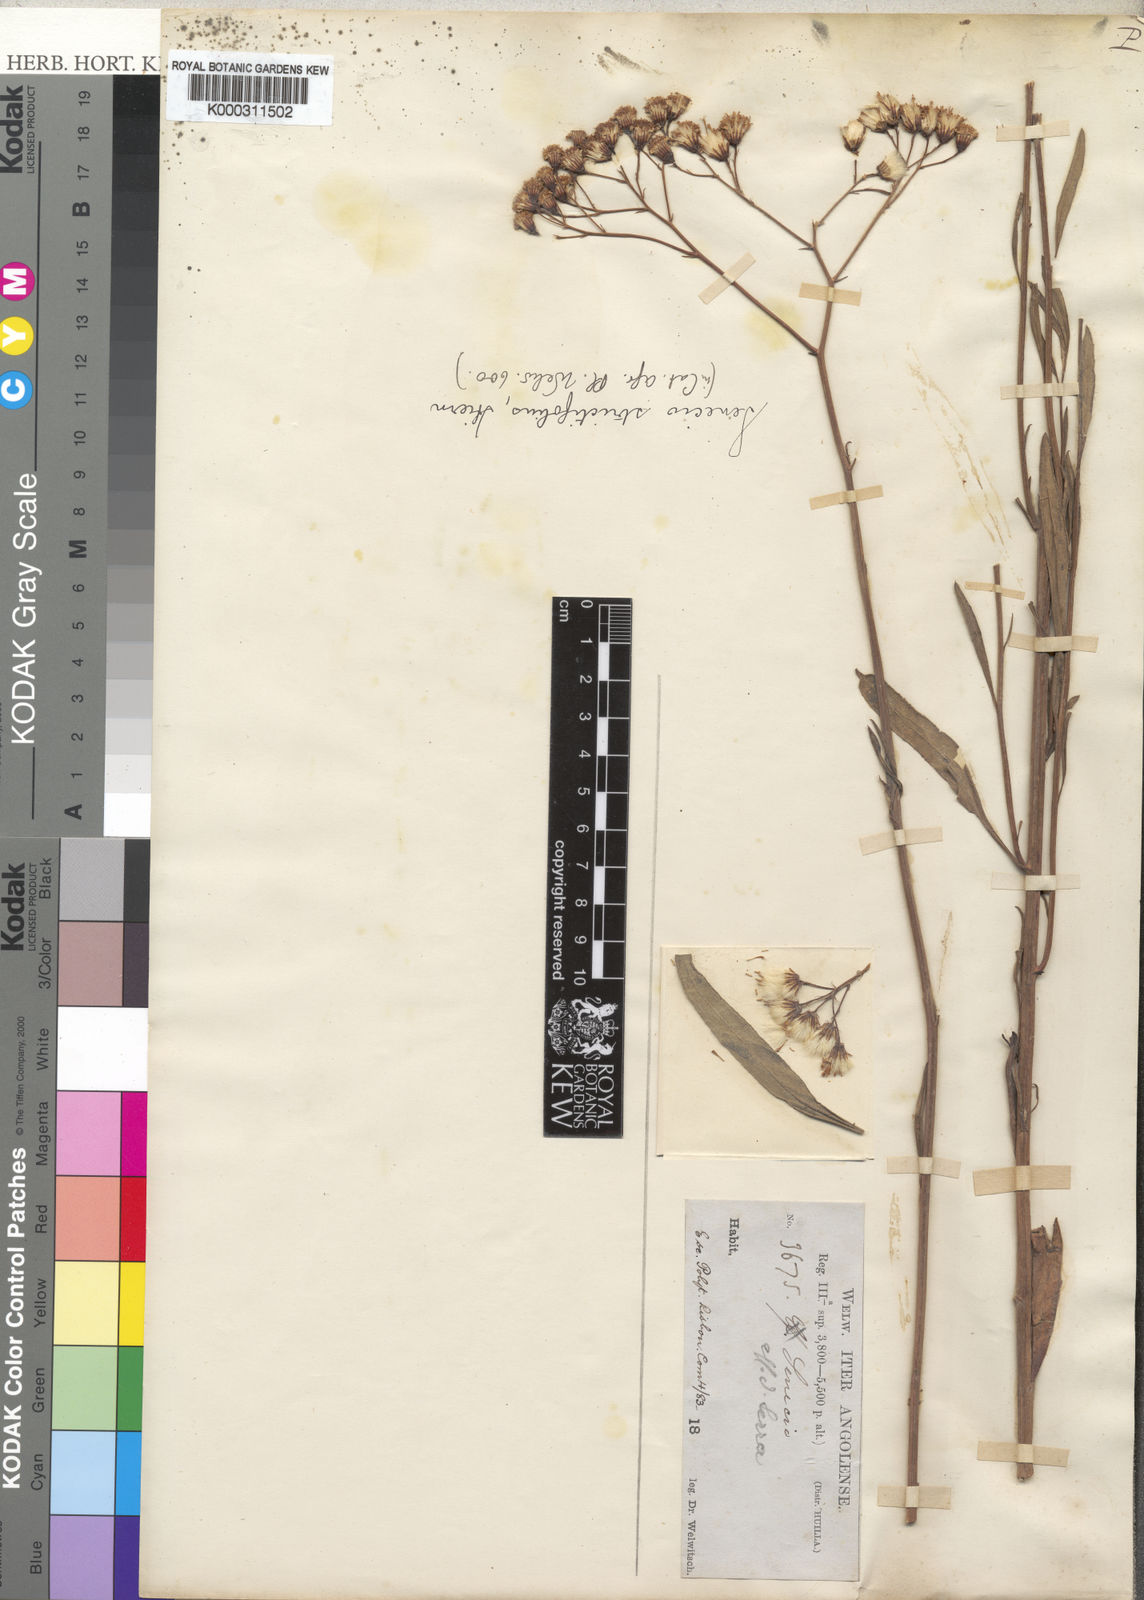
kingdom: Plantae
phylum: Tracheophyta
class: Magnoliopsida
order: Asterales
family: Asteraceae
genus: Senecio
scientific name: Senecio strictifolius
